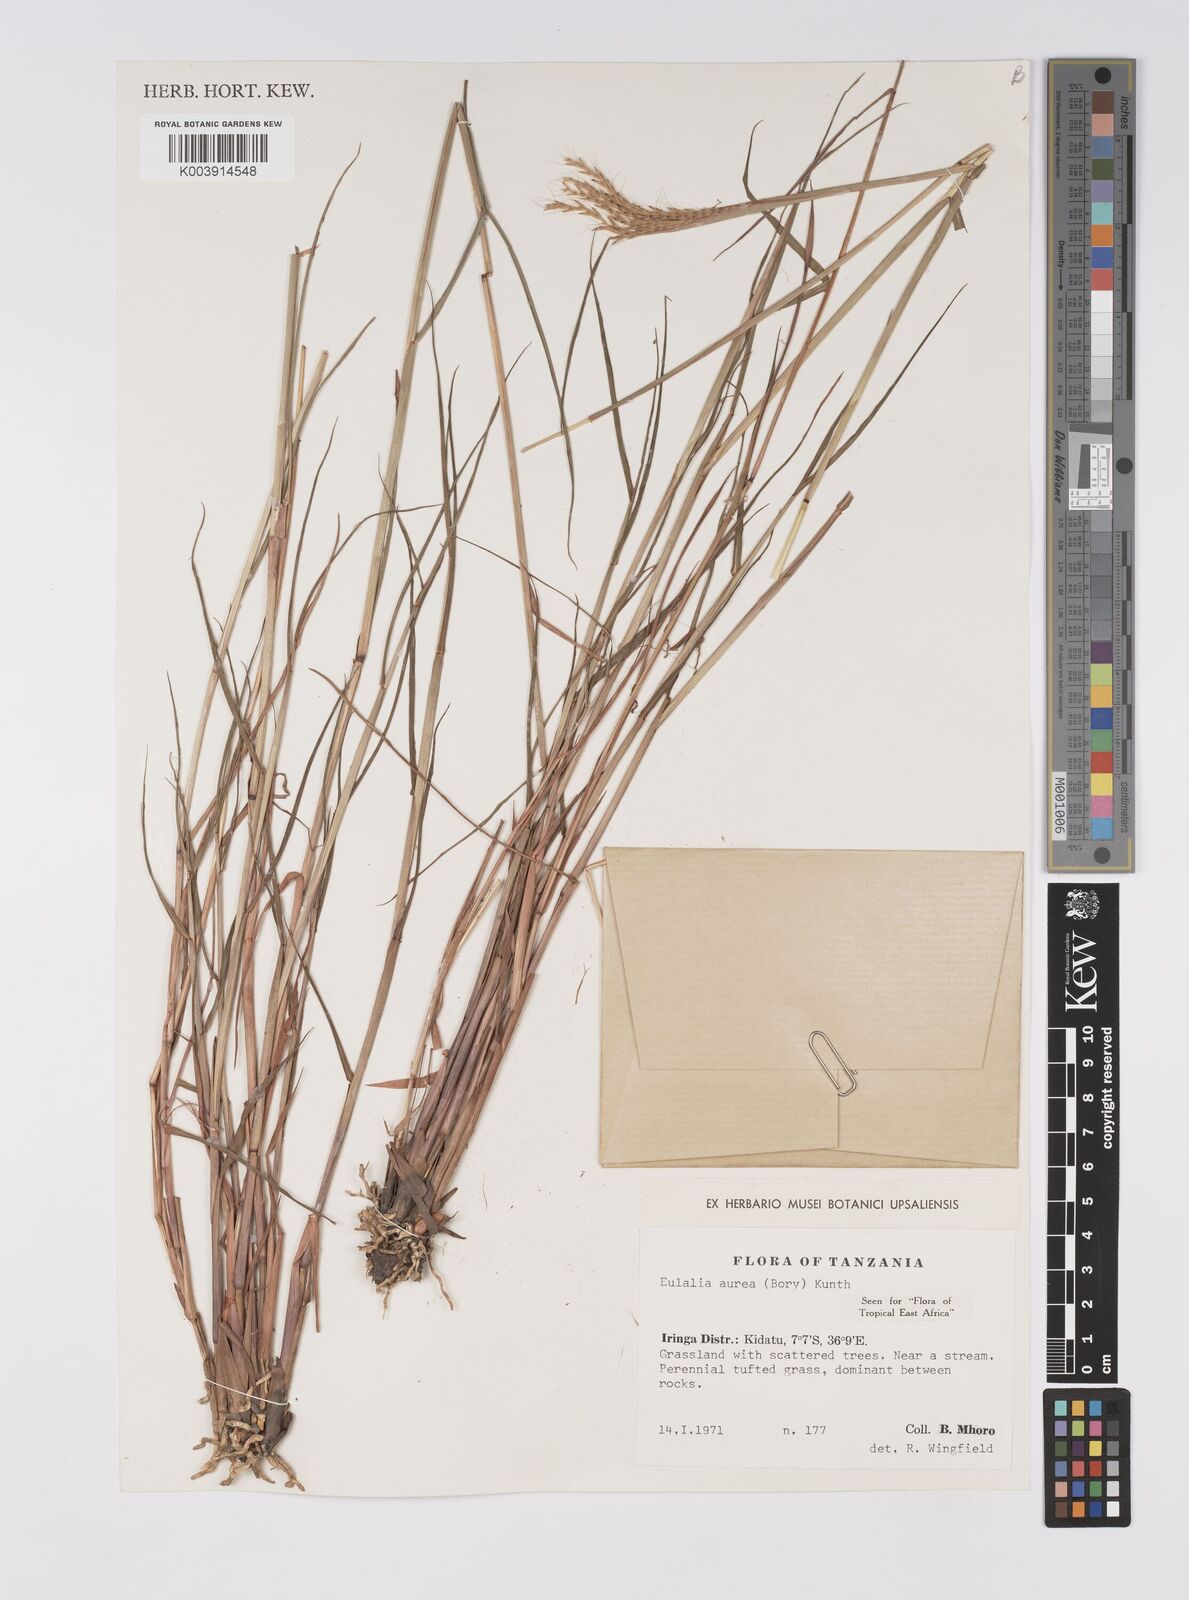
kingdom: Plantae
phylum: Tracheophyta
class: Liliopsida
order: Poales
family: Poaceae
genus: Eulalia
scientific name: Eulalia aurea
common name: Silky browntop
